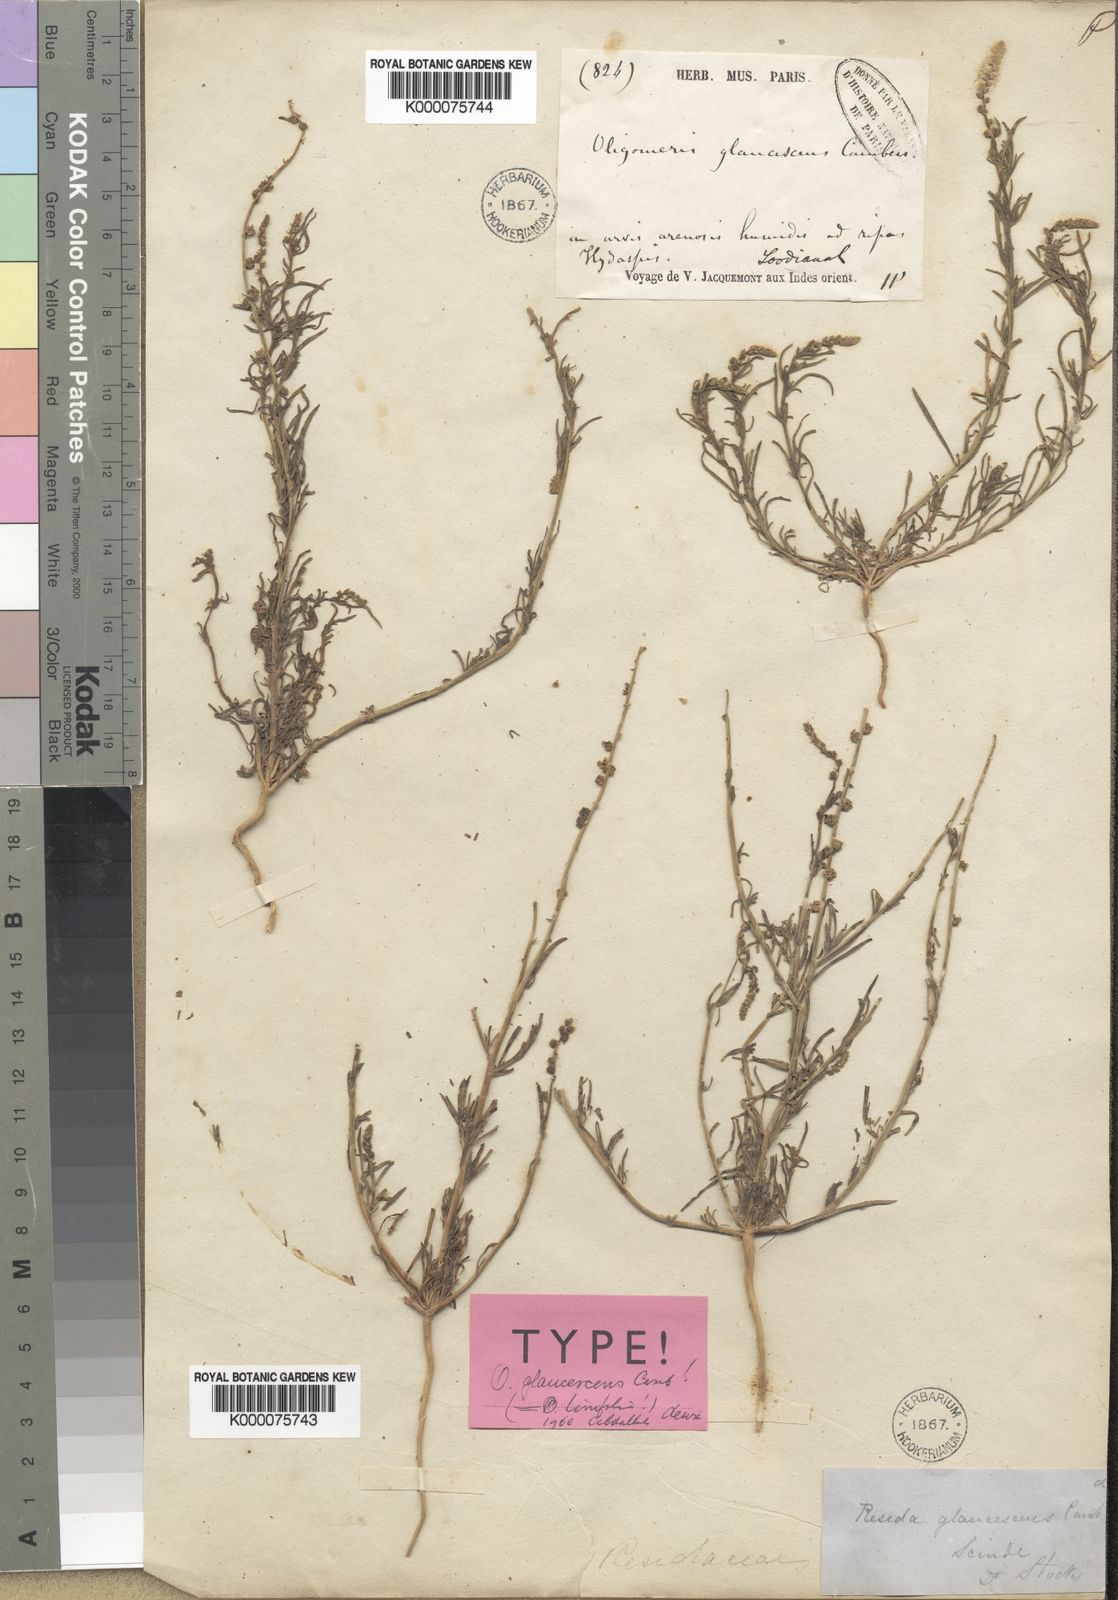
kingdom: Plantae
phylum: Tracheophyta
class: Magnoliopsida
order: Brassicales
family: Resedaceae
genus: Oligomeris
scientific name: Oligomeris linifolia
